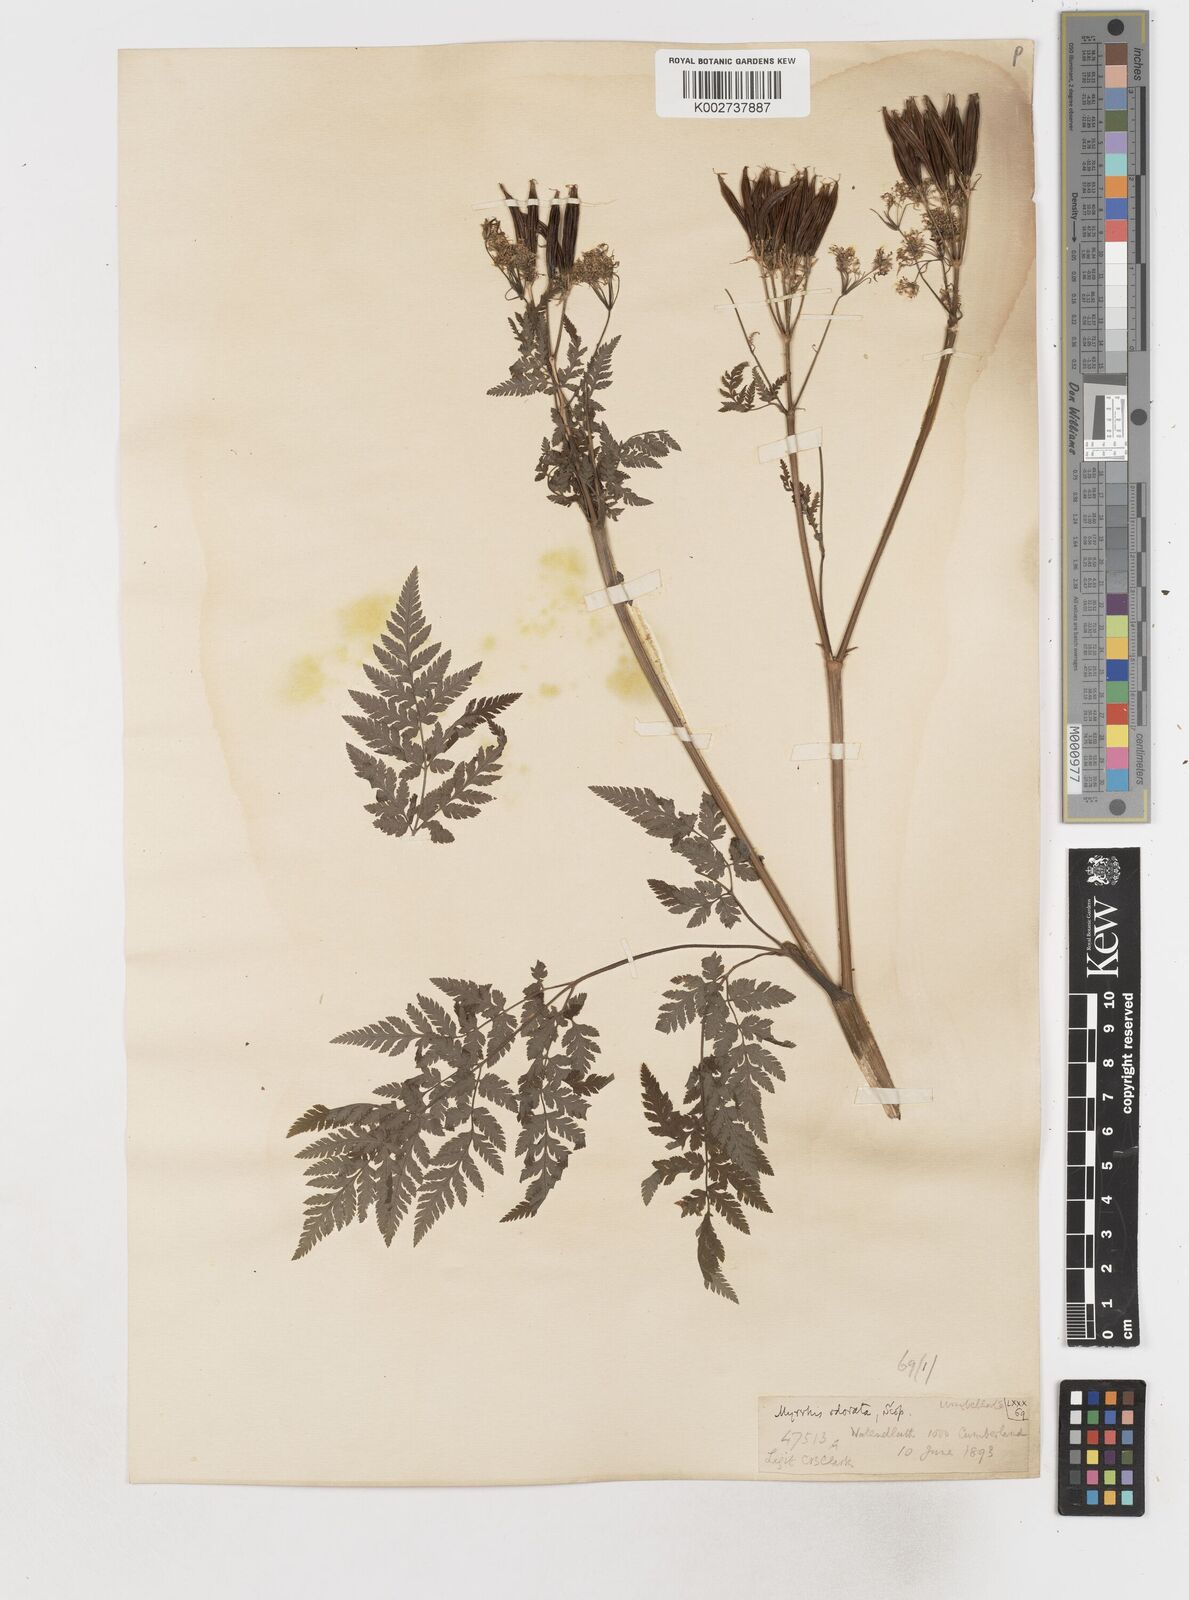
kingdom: Plantae
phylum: Tracheophyta
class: Magnoliopsida
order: Apiales
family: Apiaceae
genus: Myrrhis
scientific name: Myrrhis odorata
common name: Sweet cicely
